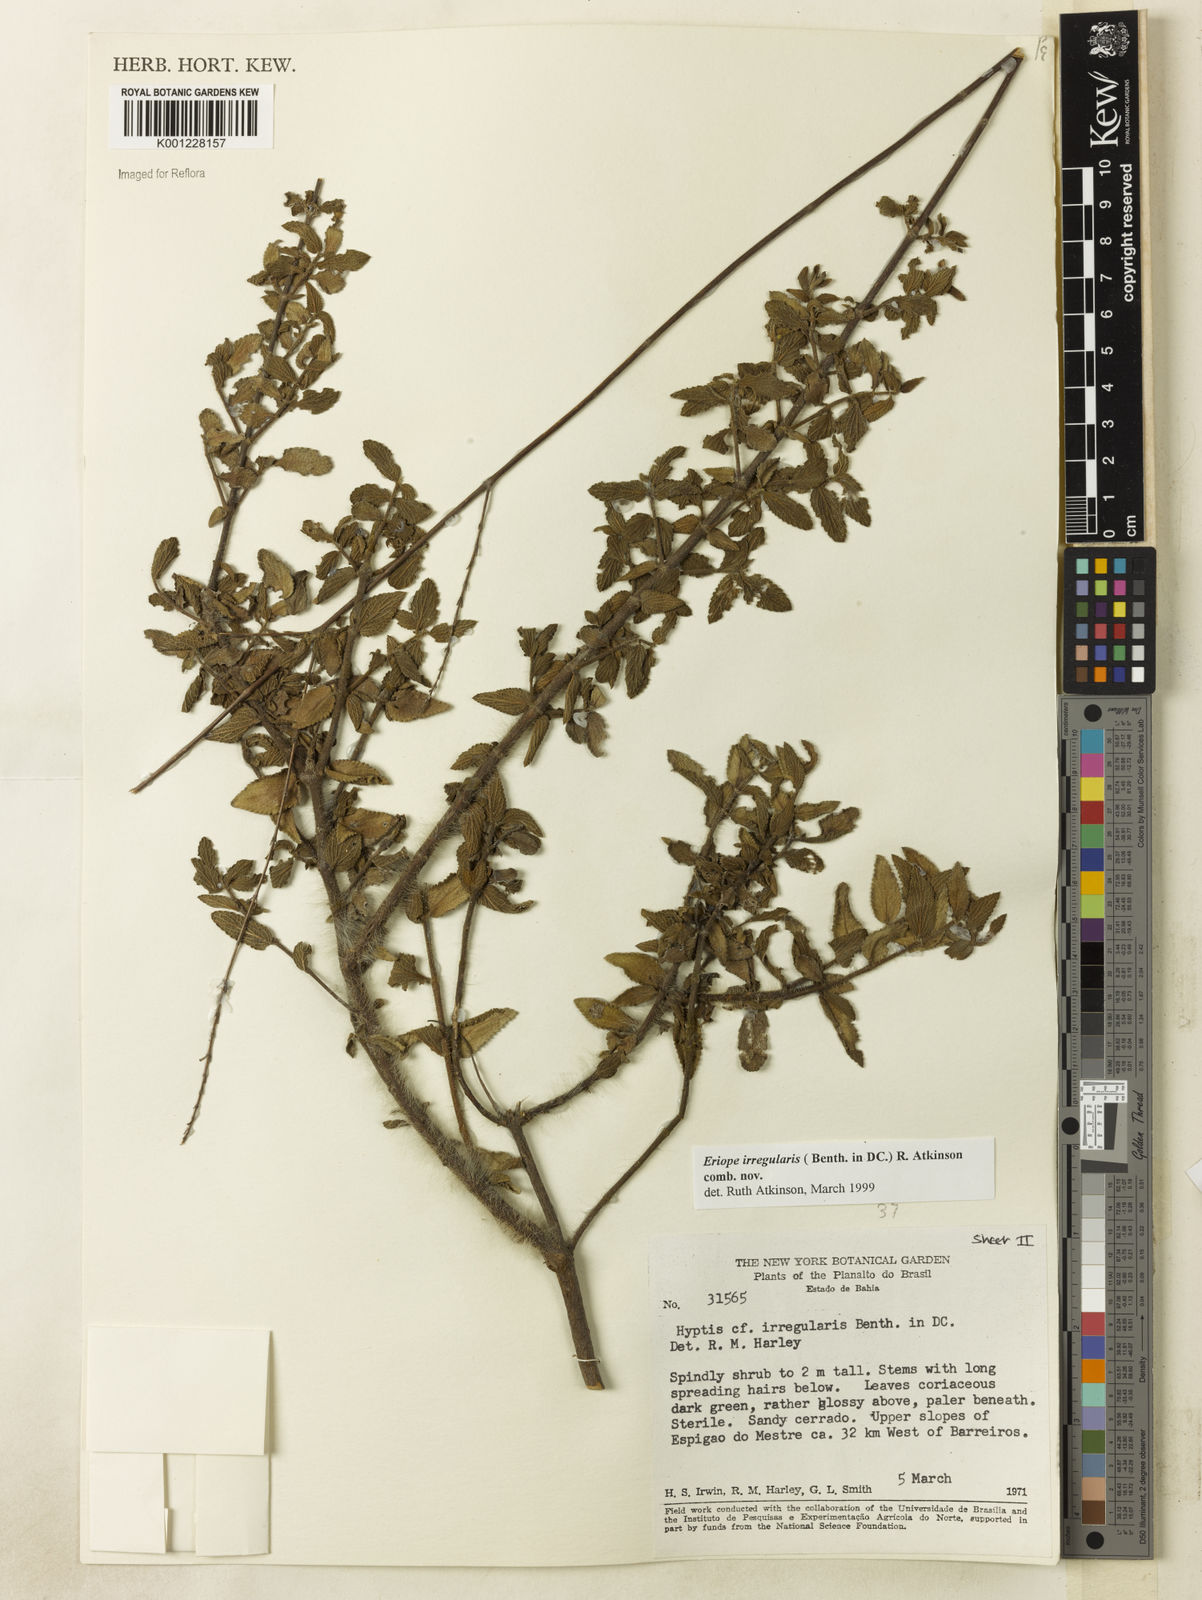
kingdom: Plantae
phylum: Tracheophyta
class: Magnoliopsida
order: Lamiales
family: Lamiaceae
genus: Hypenia
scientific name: Hypenia irregularis
